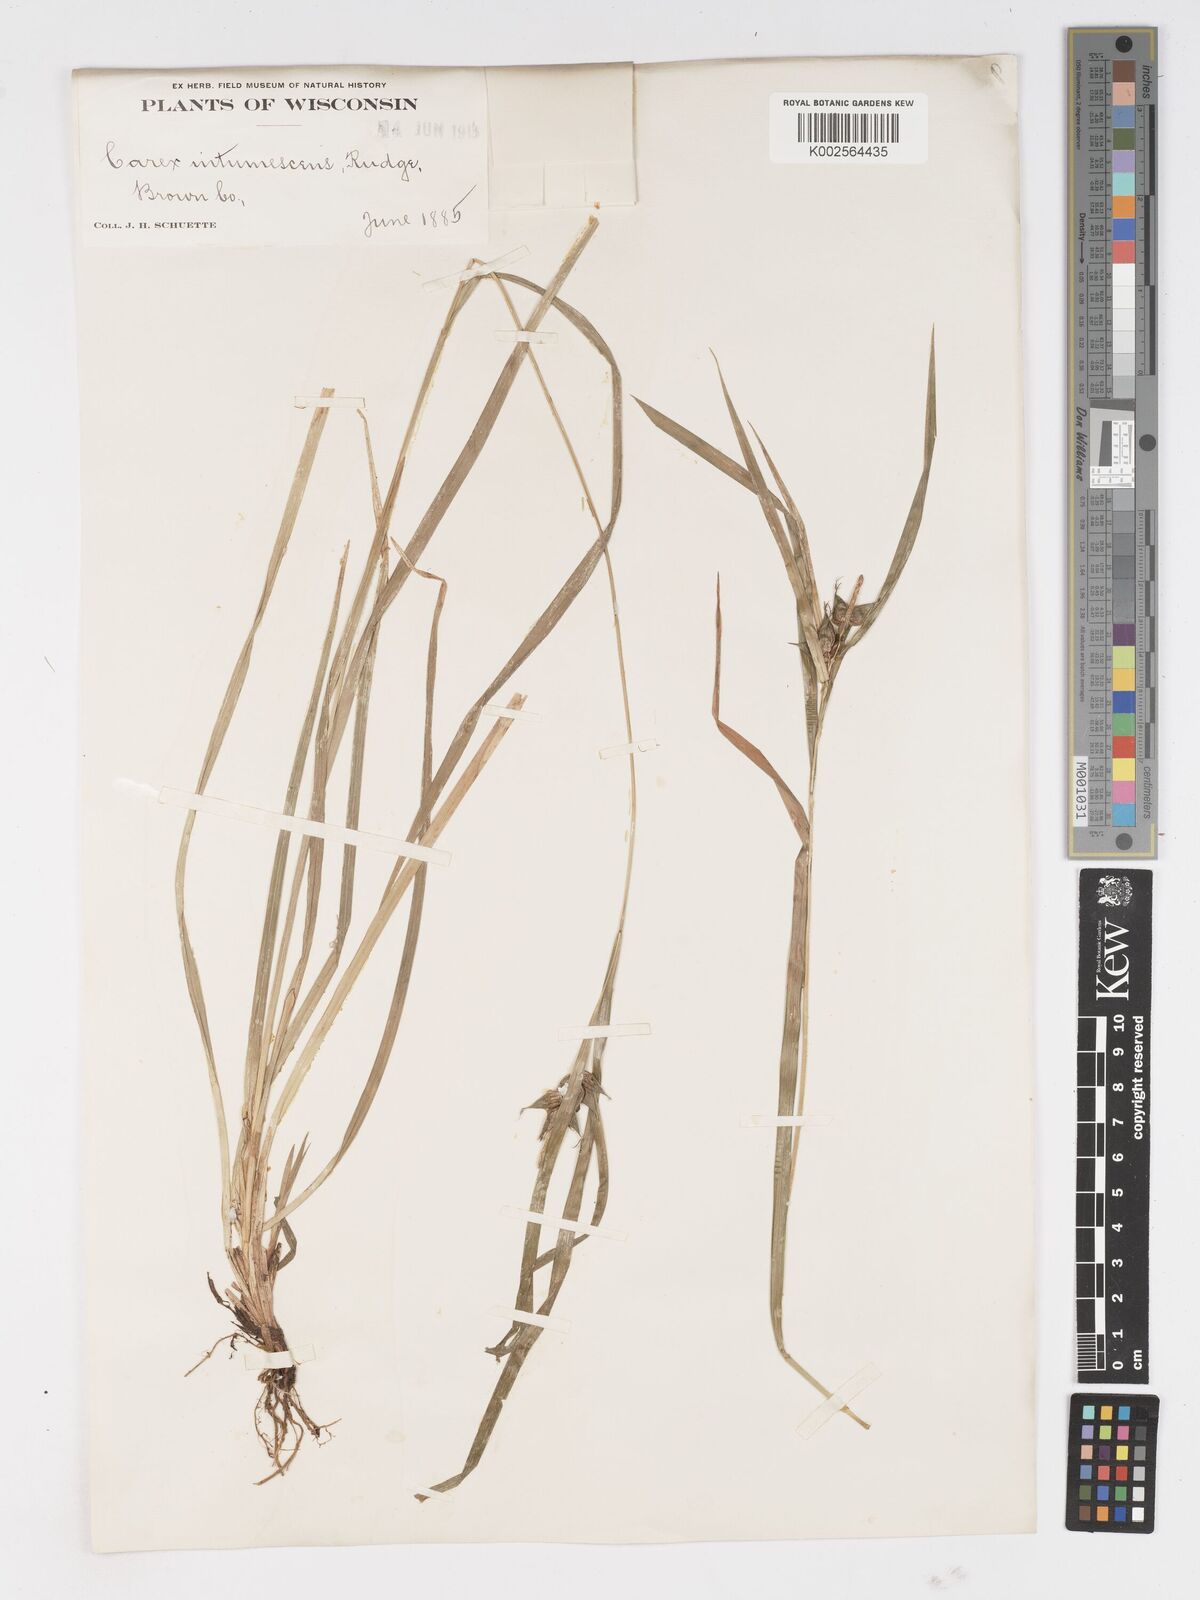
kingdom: Plantae
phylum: Tracheophyta
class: Liliopsida
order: Poales
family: Cyperaceae
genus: Carex
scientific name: Carex intumescens
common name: Greater bladder sedge
